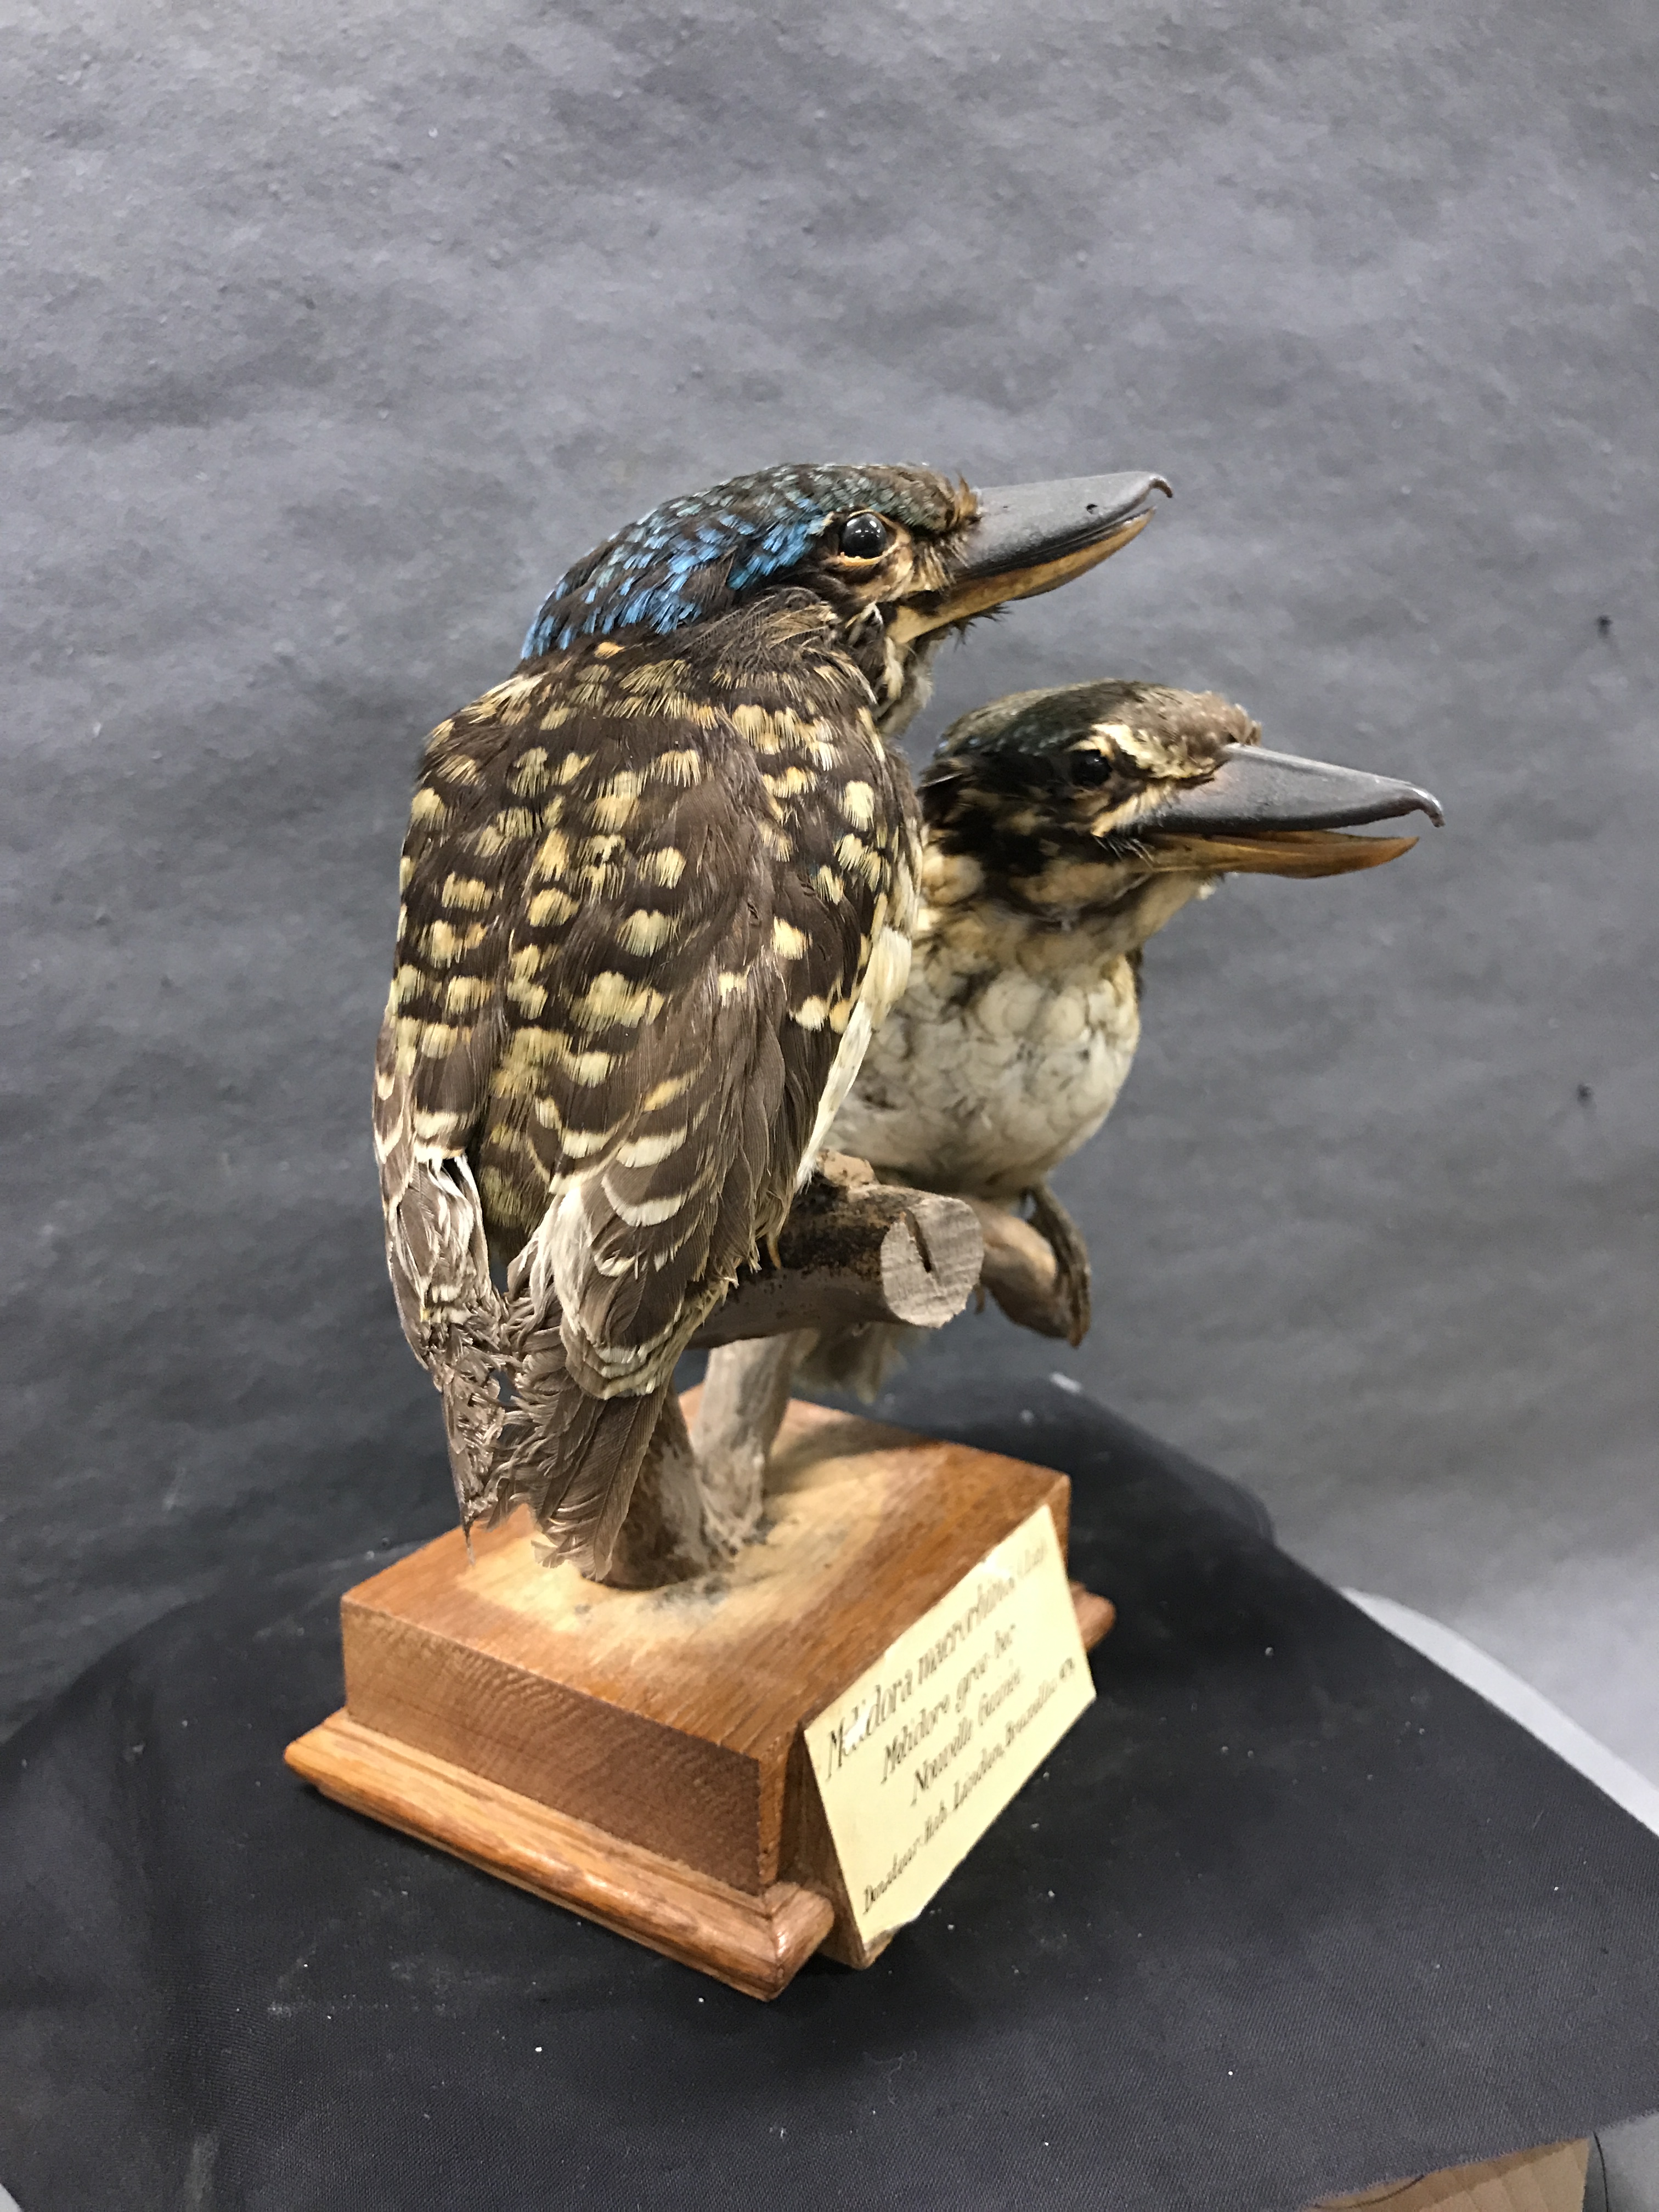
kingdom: Animalia
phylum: Chordata
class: Aves
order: Coraciiformes
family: Alcedinidae
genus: Melidora
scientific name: Melidora macrorrhina
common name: Hook-billed kingfisher
